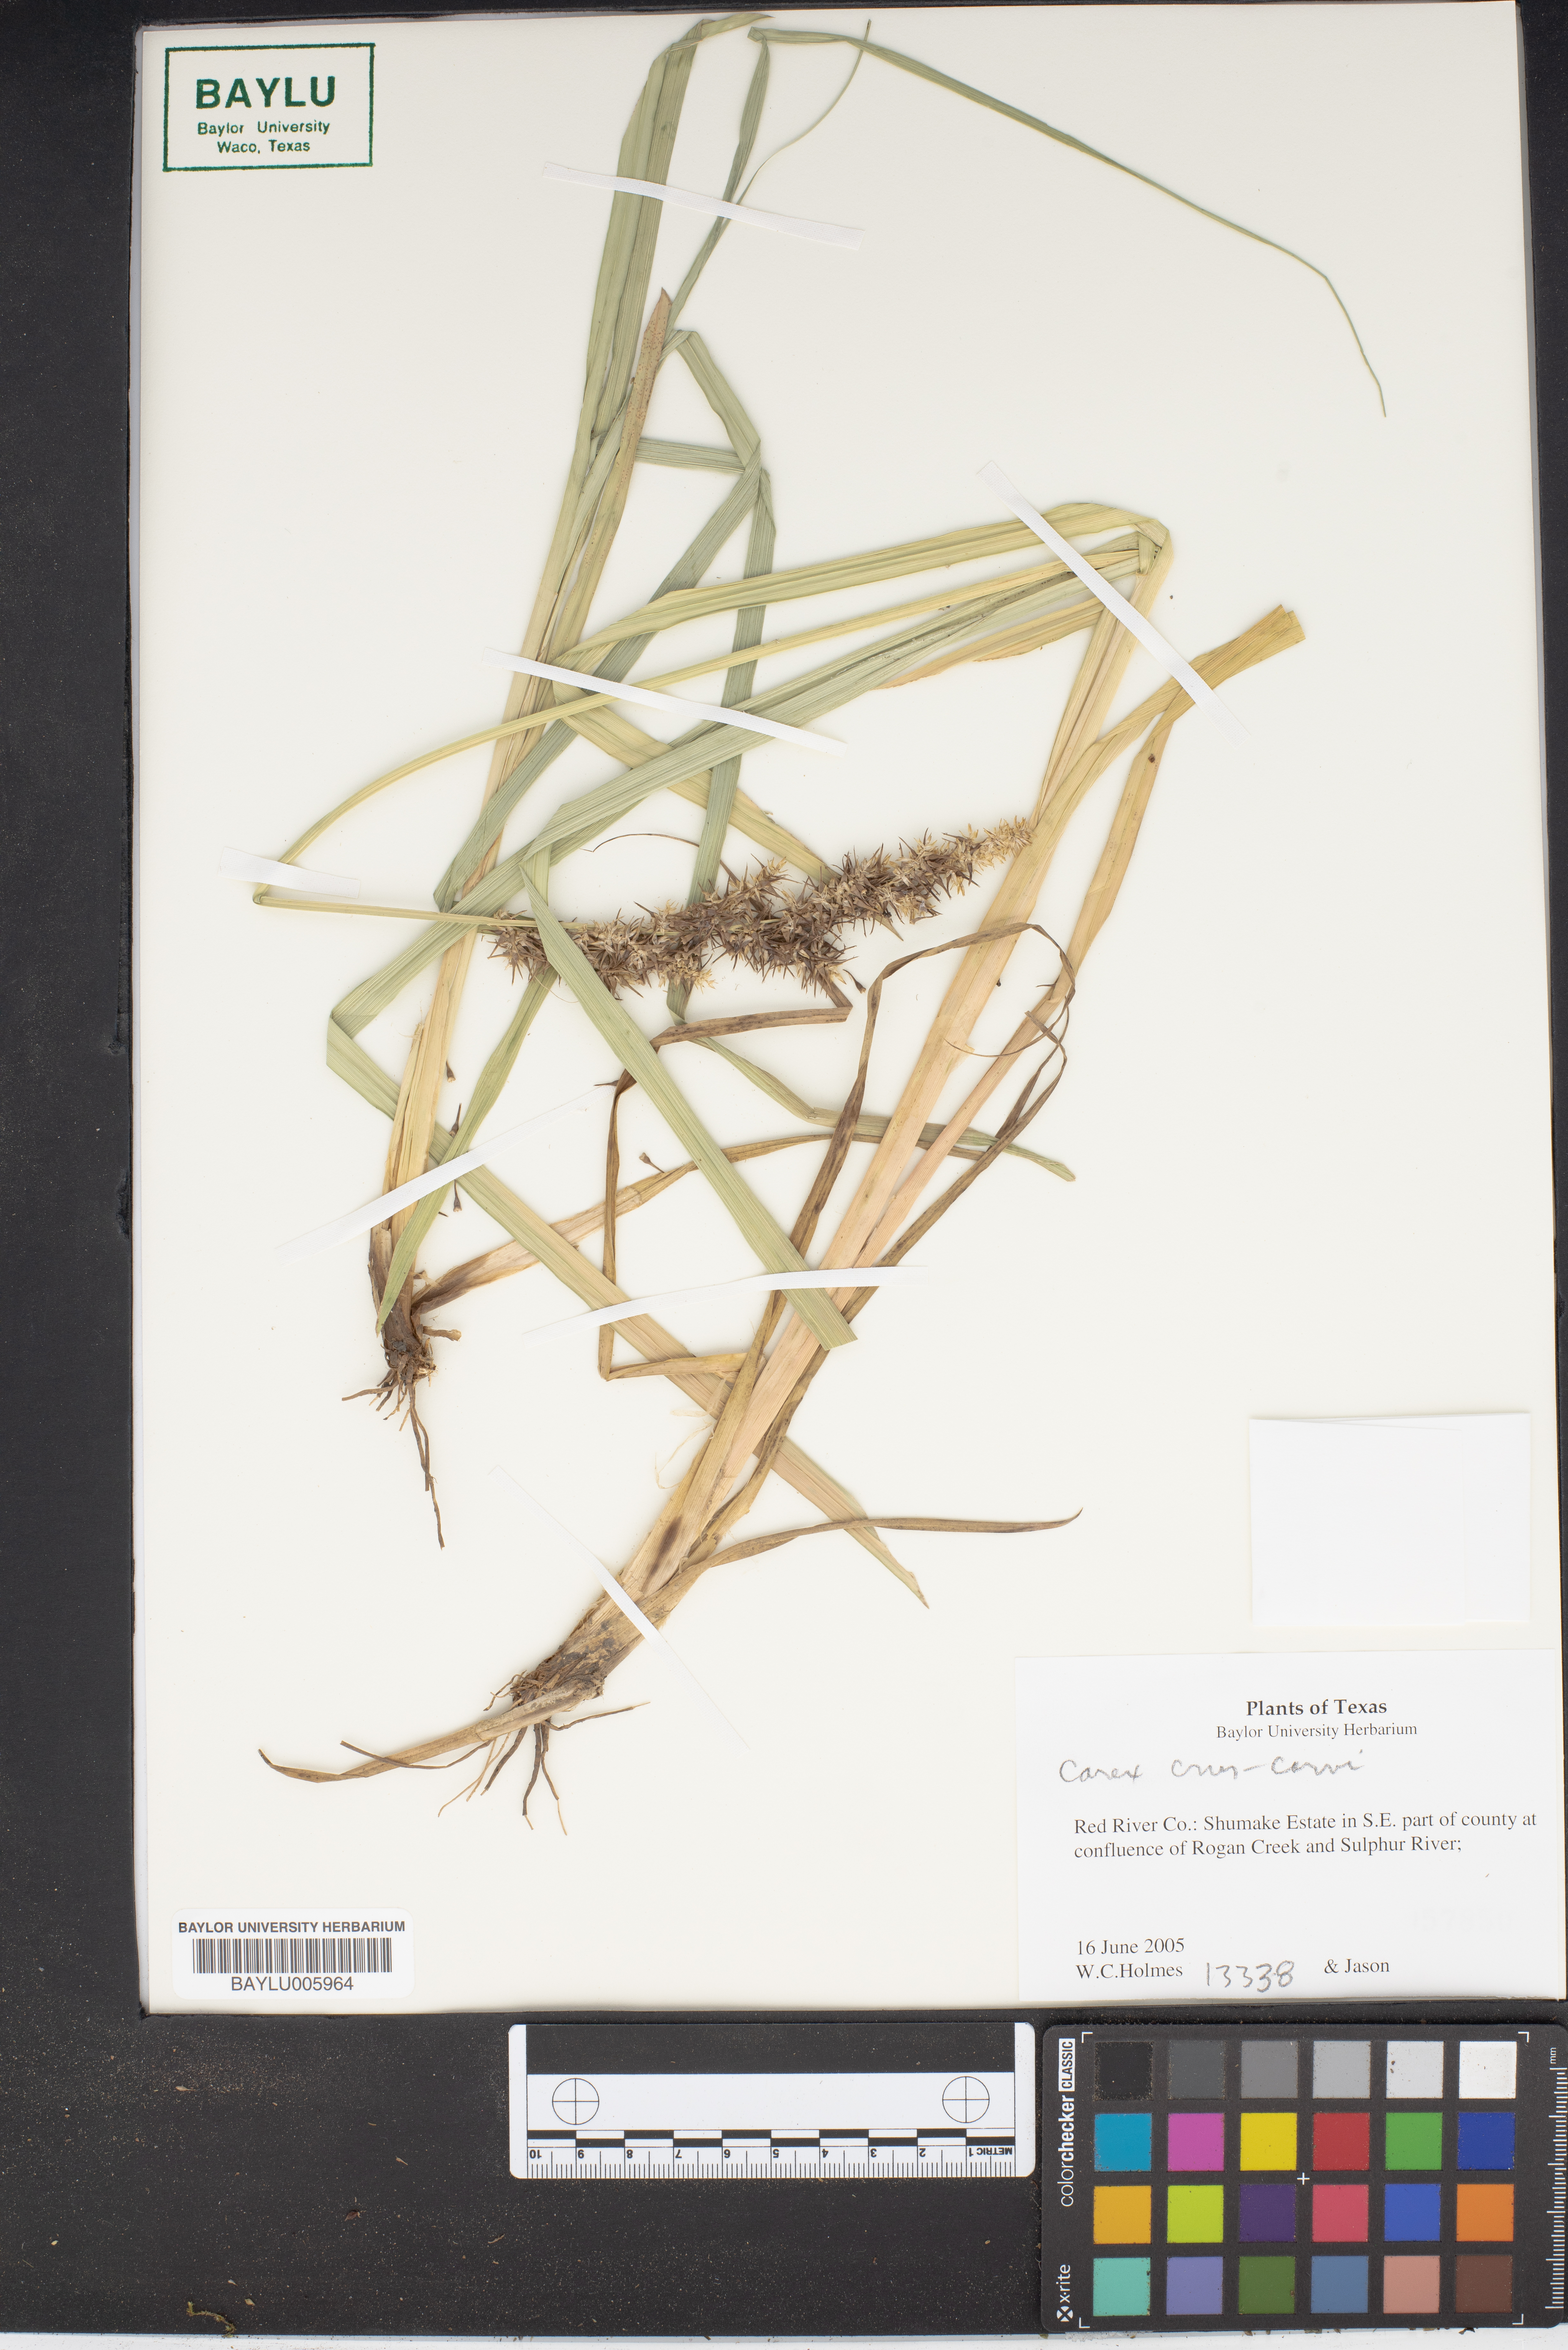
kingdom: Plantae
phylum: Tracheophyta
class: Liliopsida
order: Poales
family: Cyperaceae
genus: Carex
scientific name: Carex crus-corvi
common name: Crow-spur sedge
